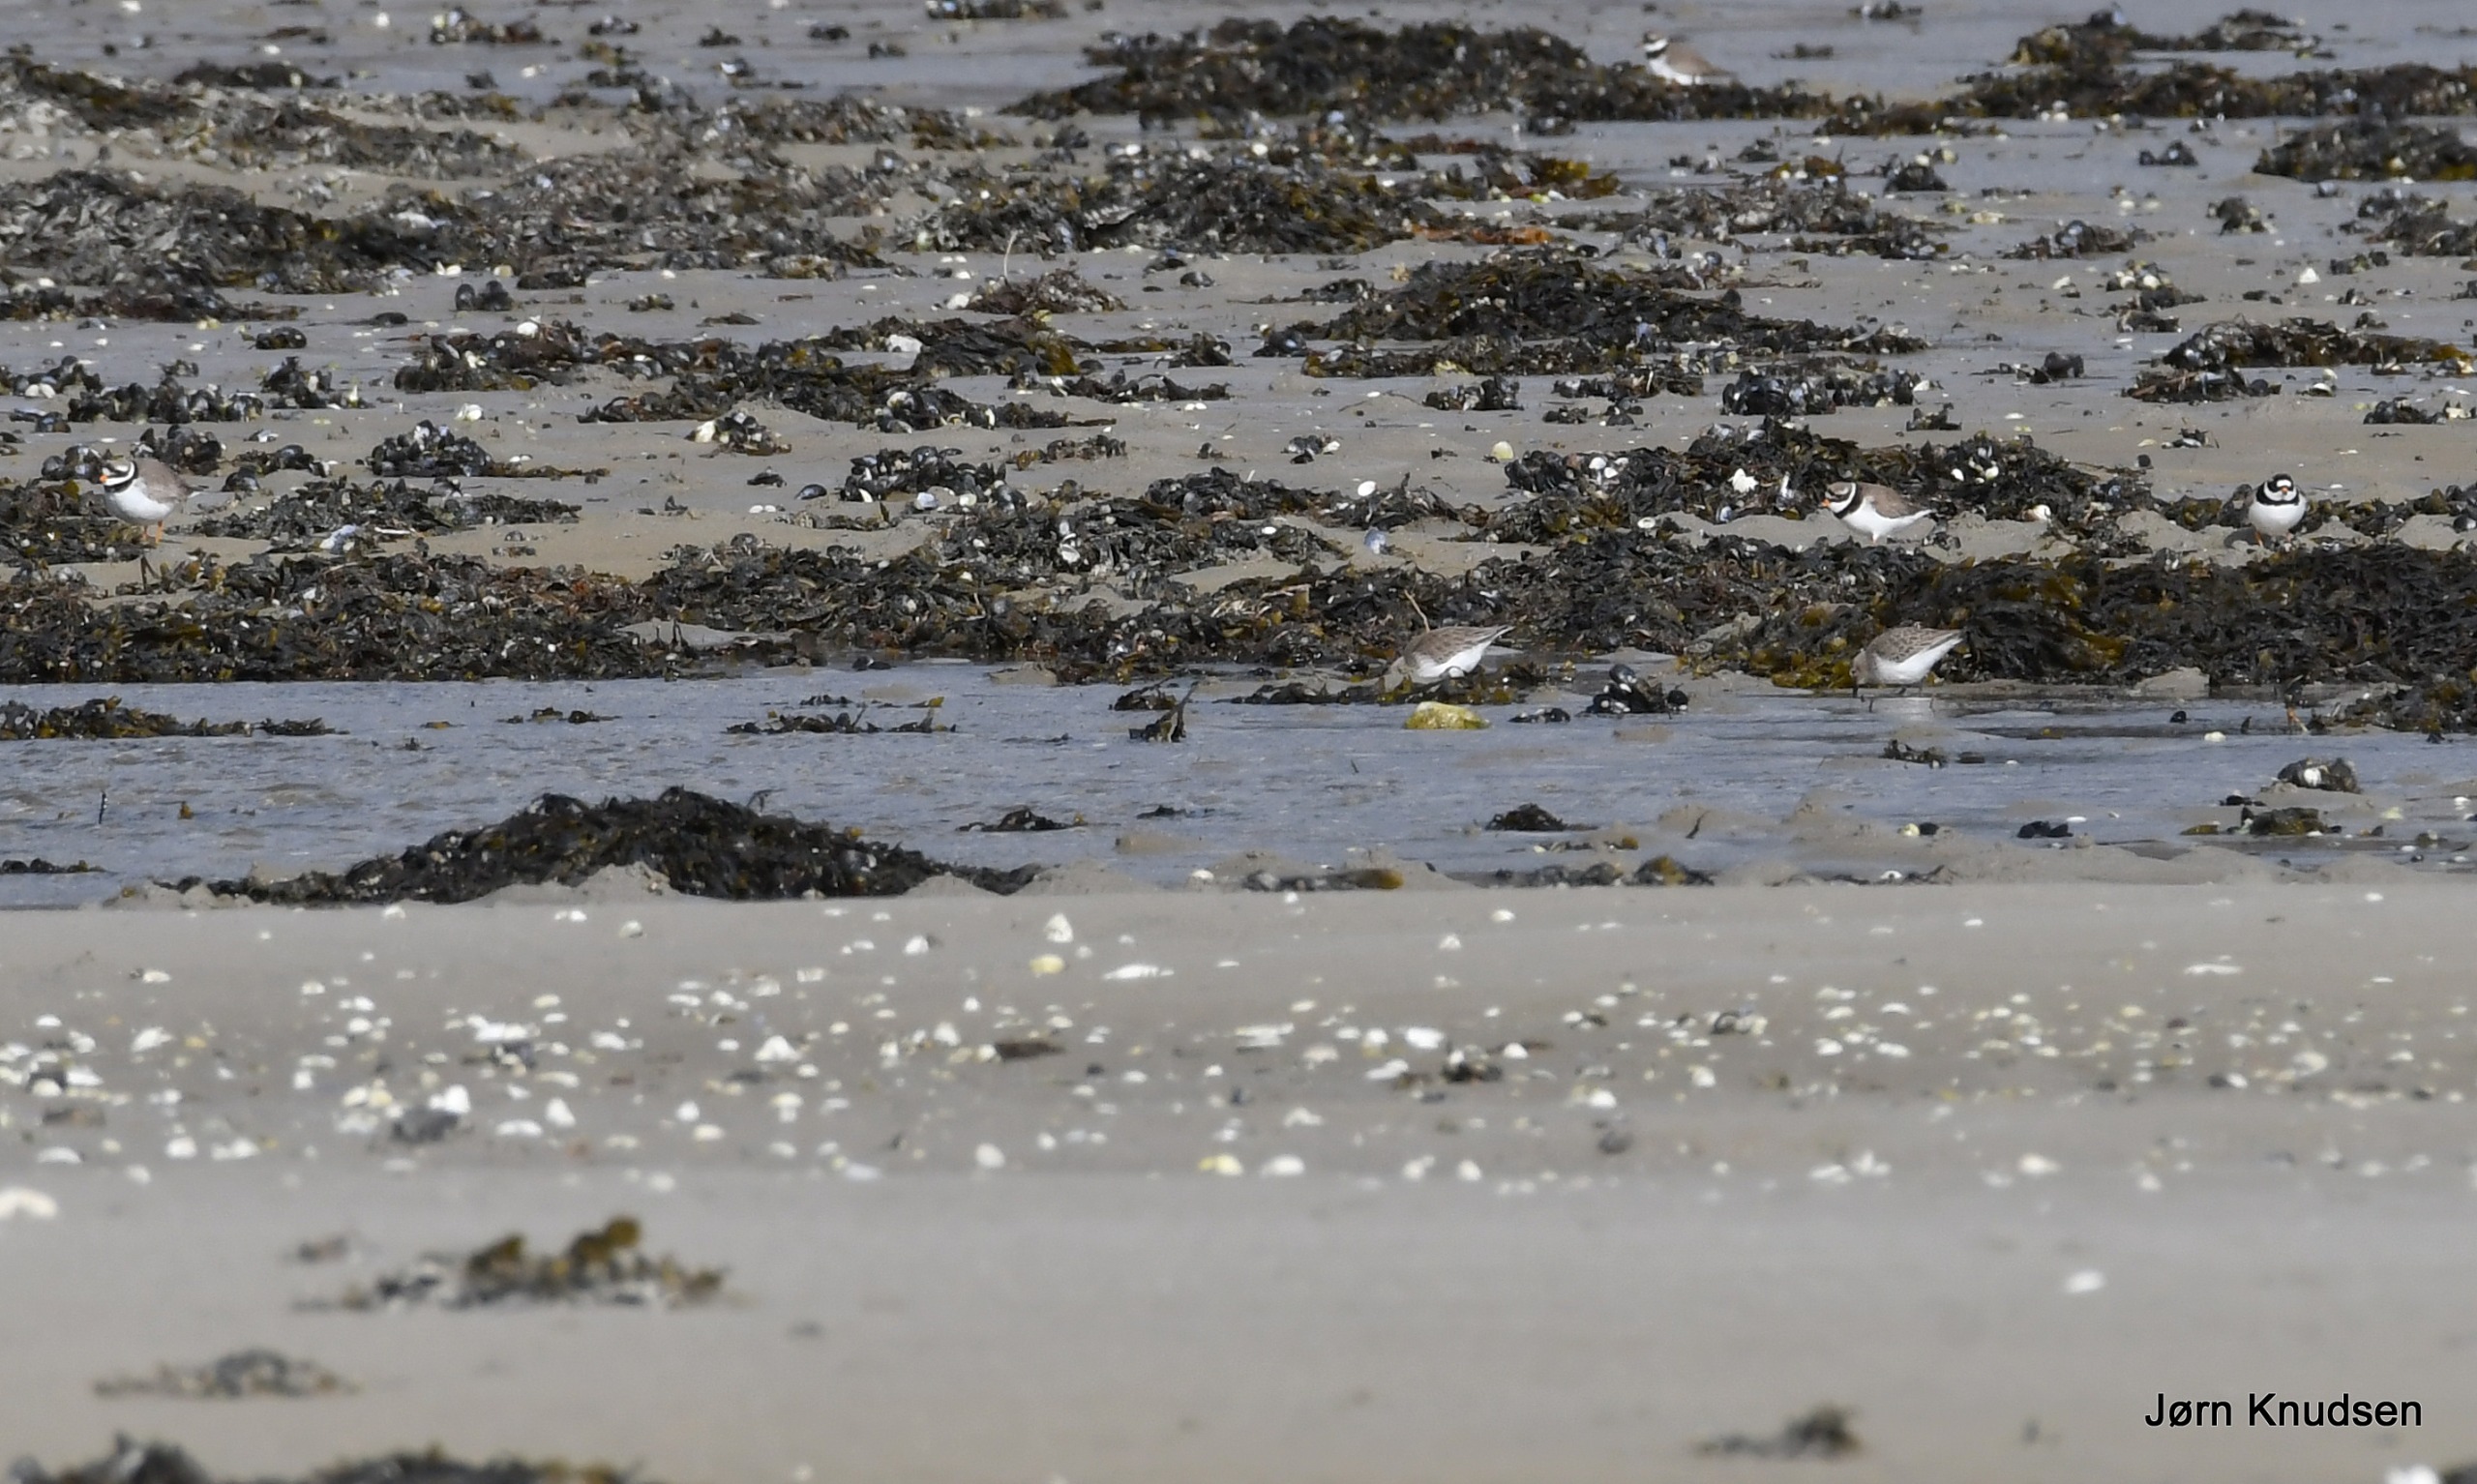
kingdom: Animalia
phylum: Chordata
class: Aves
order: Charadriiformes
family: Charadriidae
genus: Charadrius
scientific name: Charadrius hiaticula
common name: Stor præstekrave
